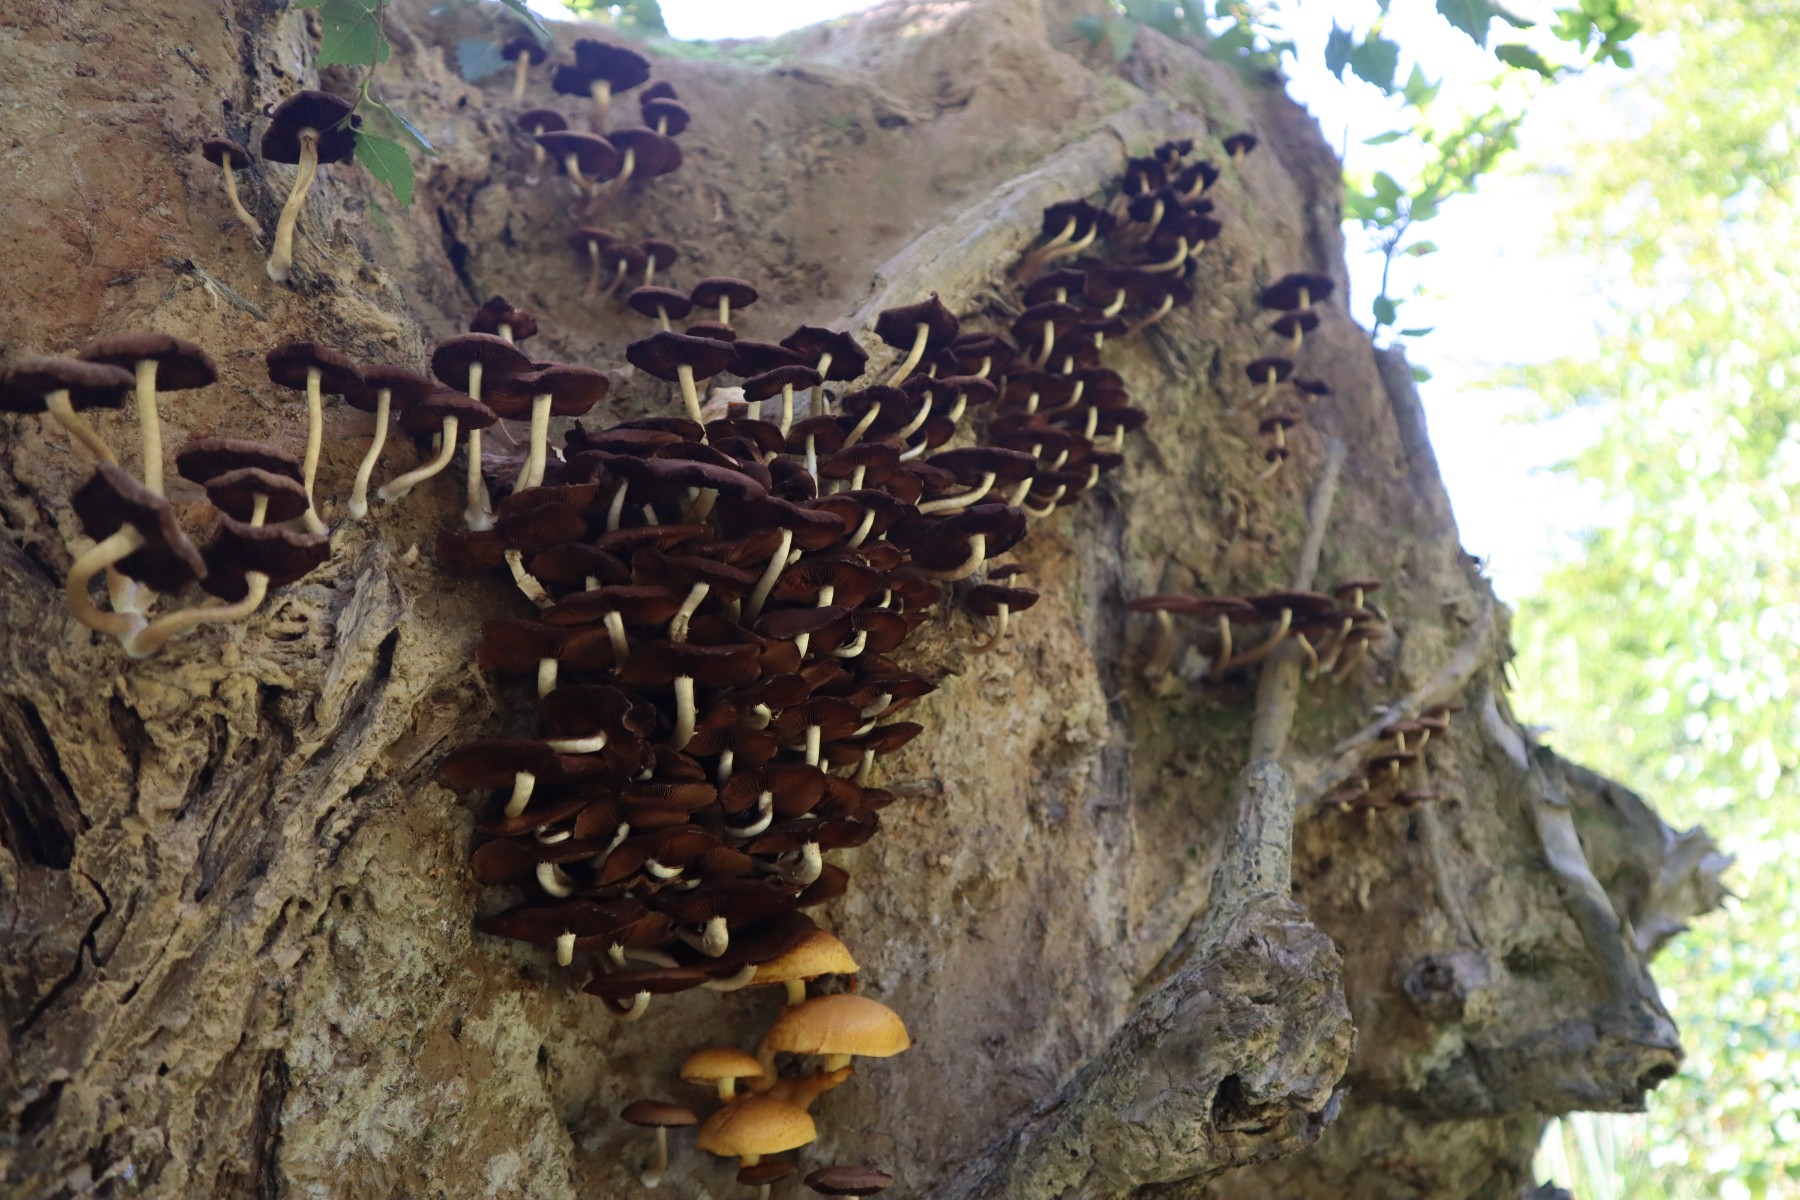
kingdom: Fungi
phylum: Basidiomycota
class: Agaricomycetes
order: Agaricales
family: Psathyrellaceae
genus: Psathyrella
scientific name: Psathyrella piluliformis
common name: lysstokket mørkhat
